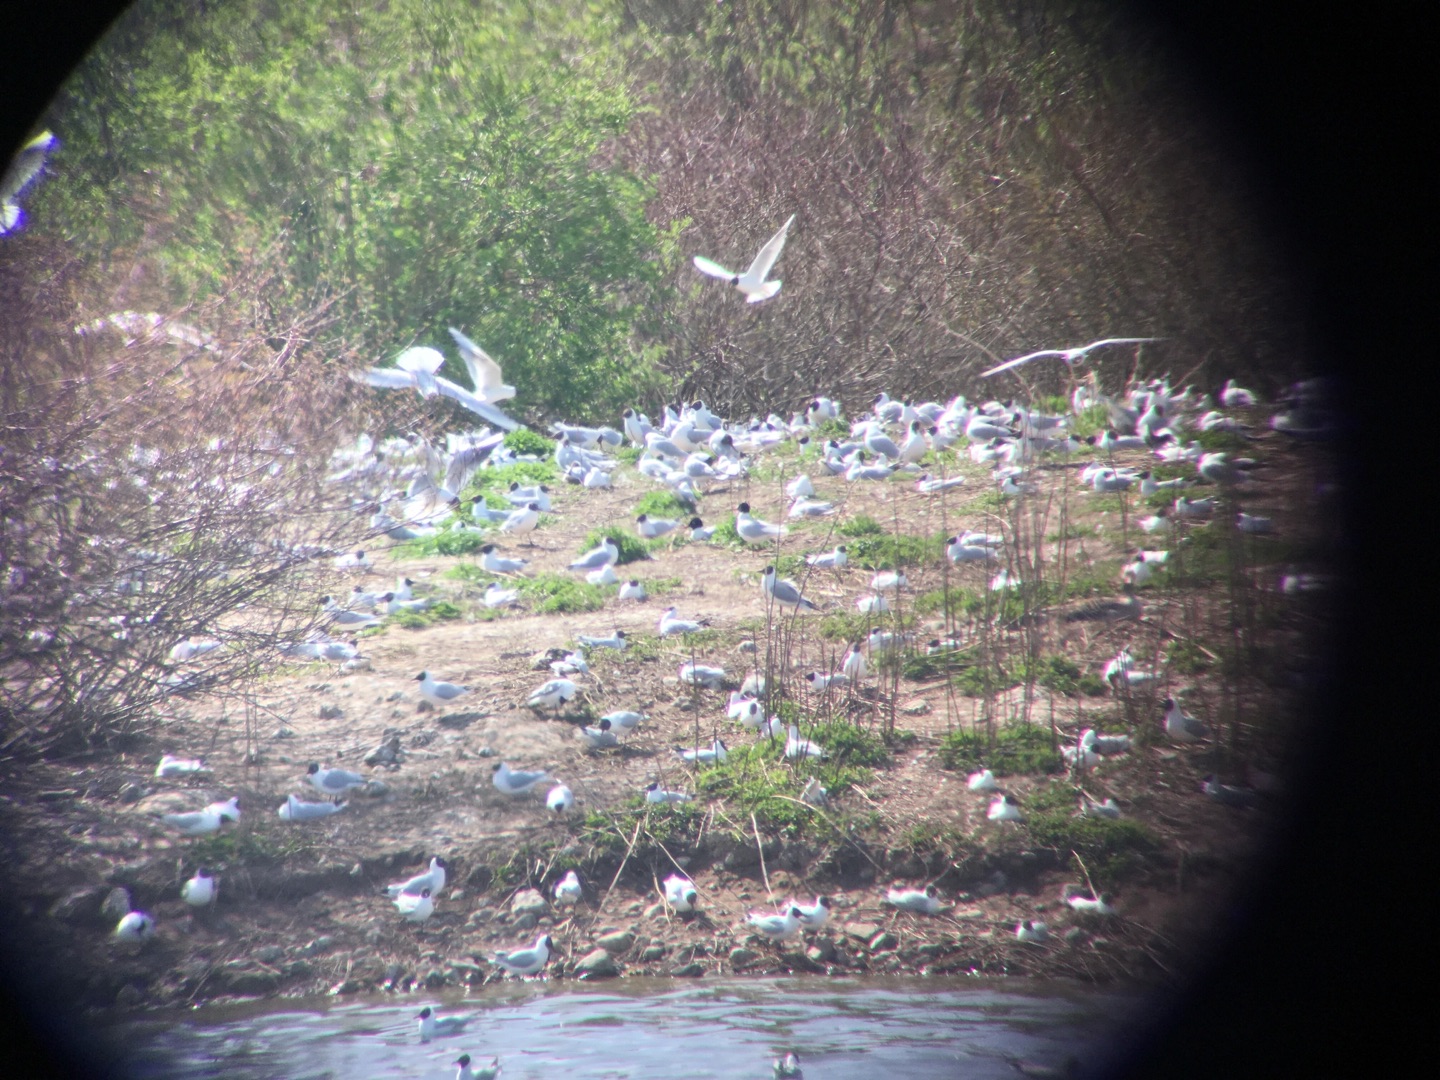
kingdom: Animalia
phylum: Chordata
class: Aves
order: Charadriiformes
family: Laridae
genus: Ichthyaetus
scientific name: Ichthyaetus melanocephalus
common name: Sorthovedet måge
